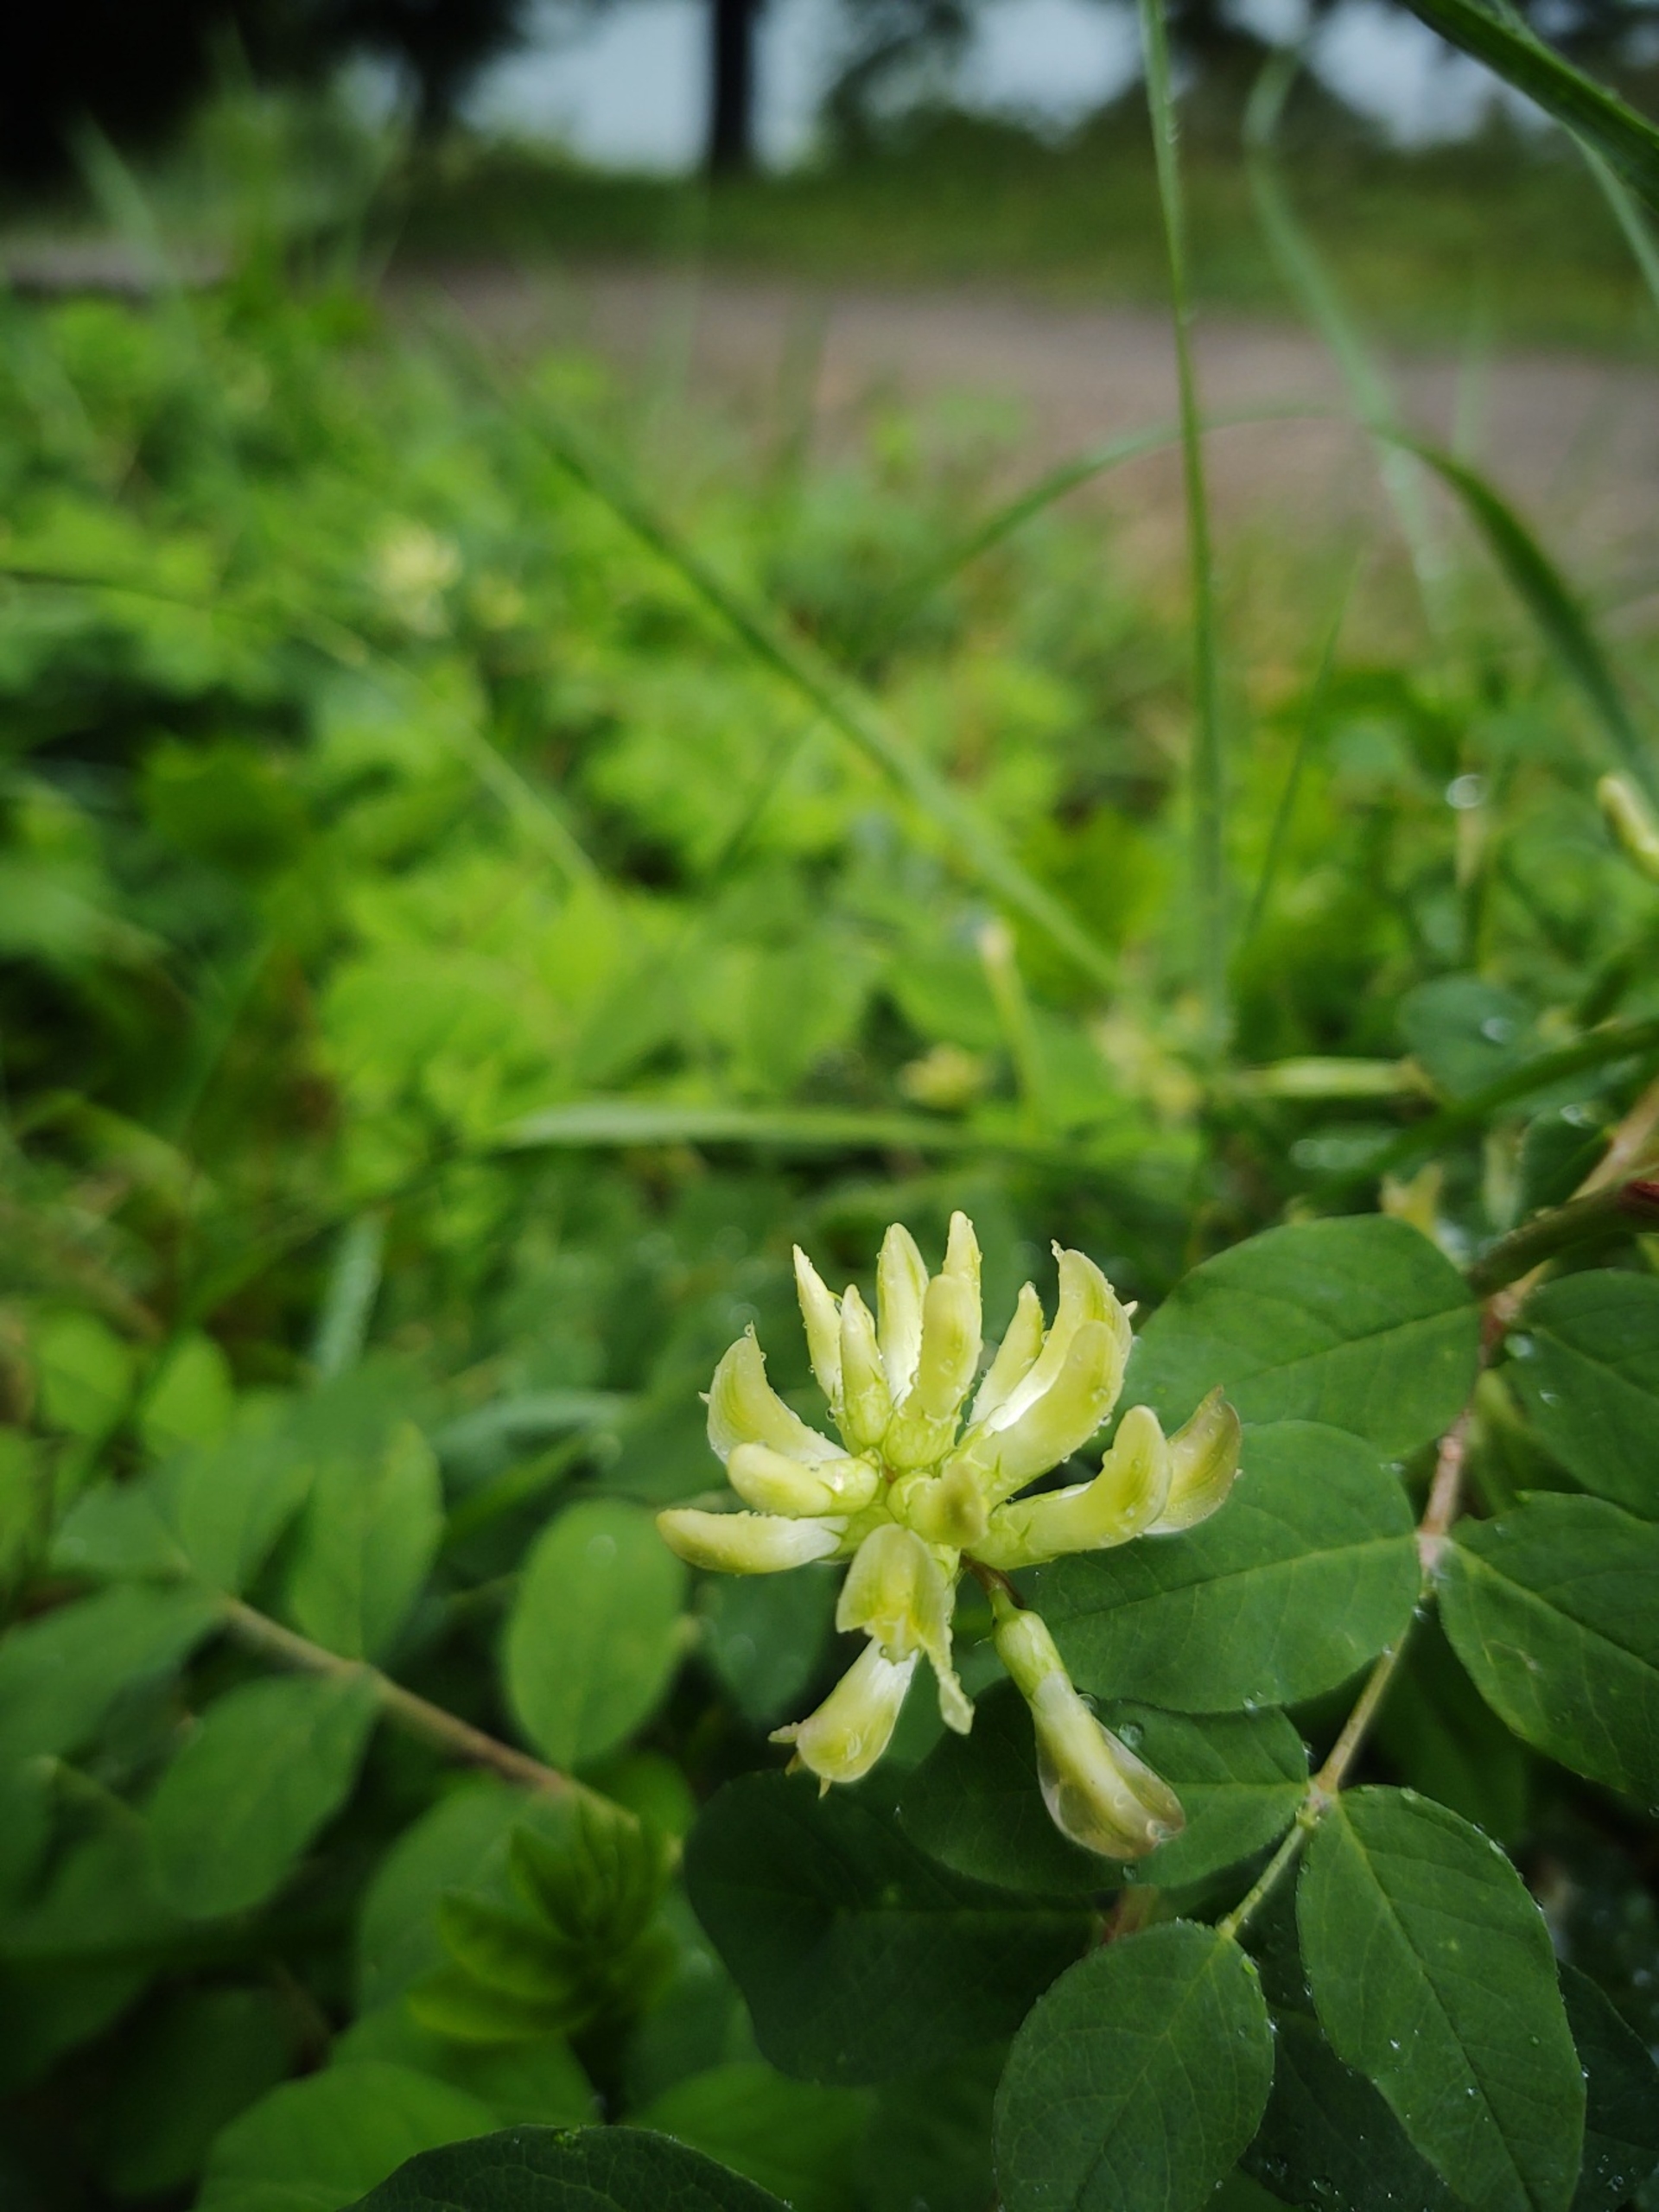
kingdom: Plantae
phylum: Tracheophyta
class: Magnoliopsida
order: Fabales
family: Fabaceae
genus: Astragalus
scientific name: Astragalus glycyphyllos
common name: Sød astragel
